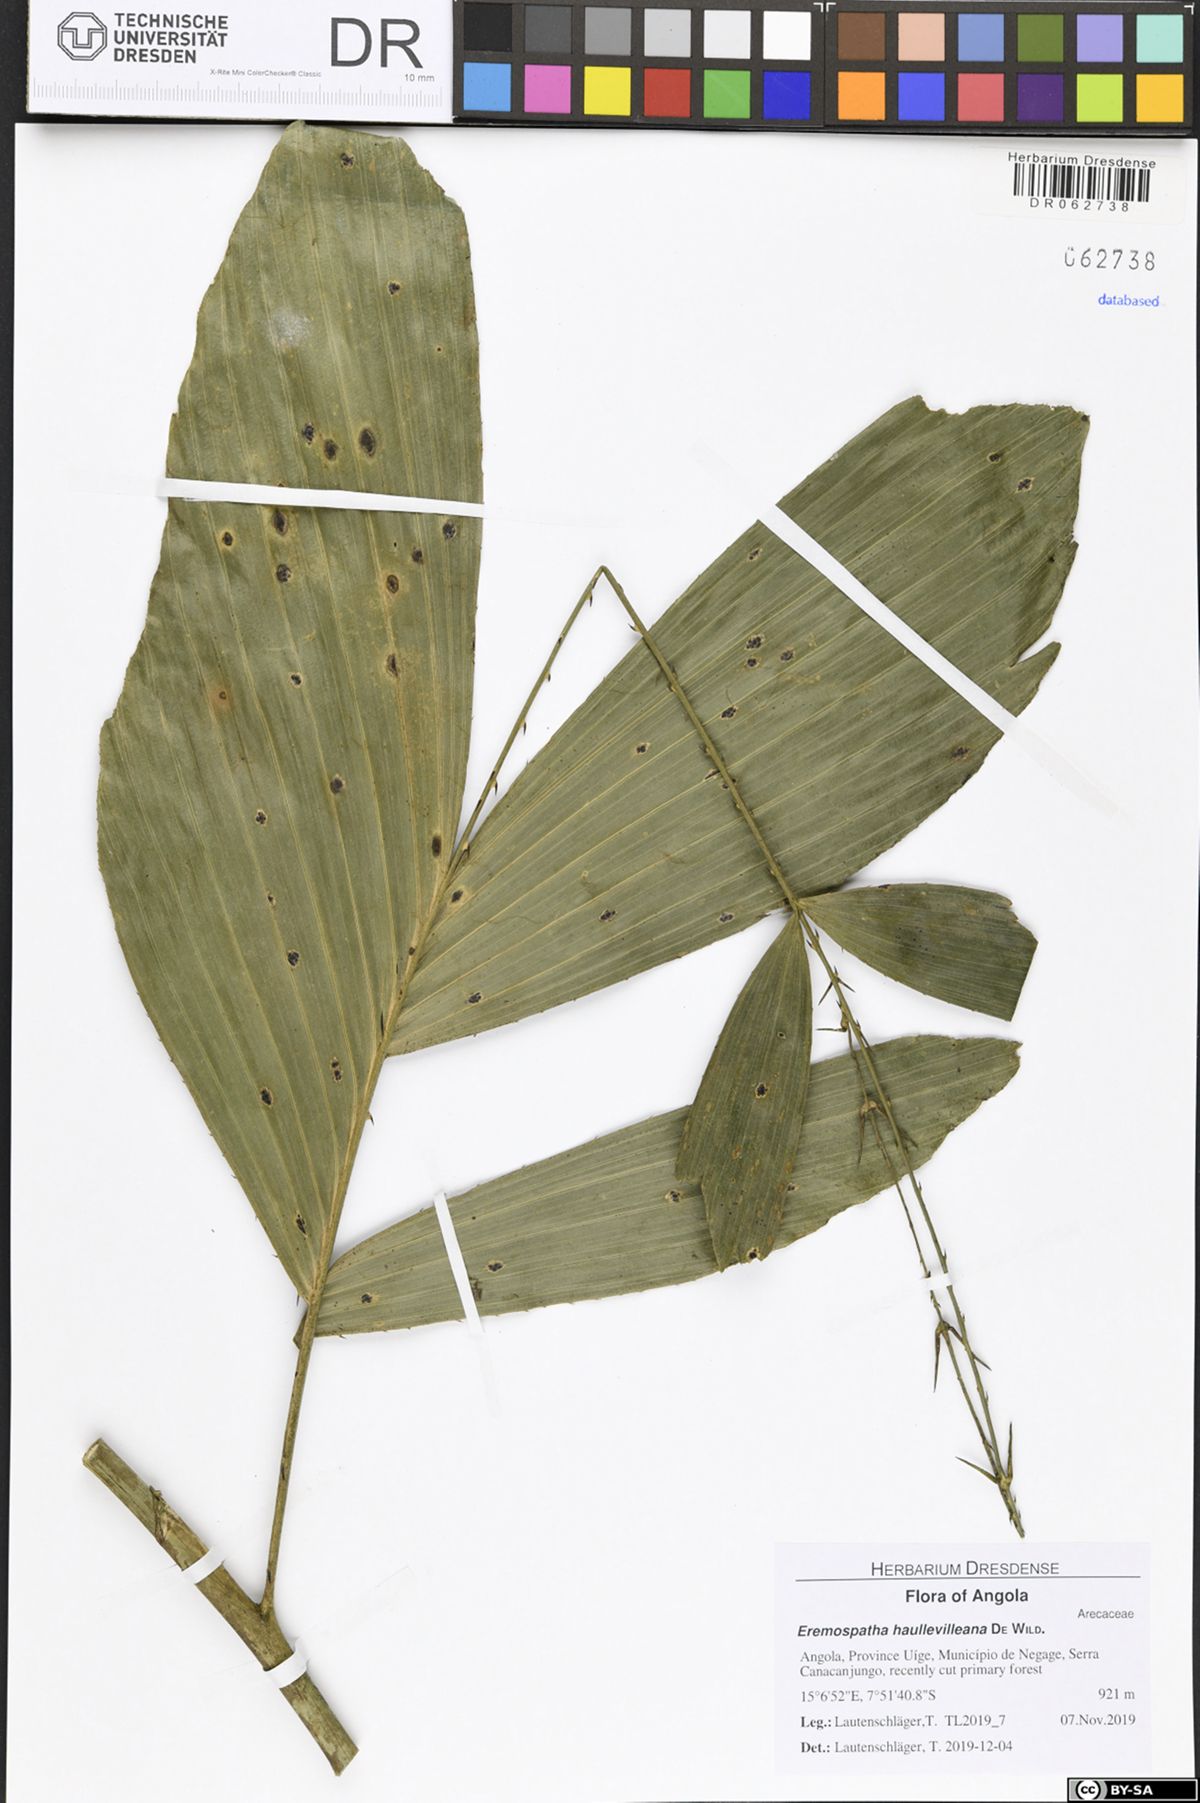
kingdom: Plantae
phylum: Tracheophyta
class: Liliopsida
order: Arecales
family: Arecaceae
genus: Eremospatha
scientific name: Eremospatha haullevilleana
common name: Rattan
